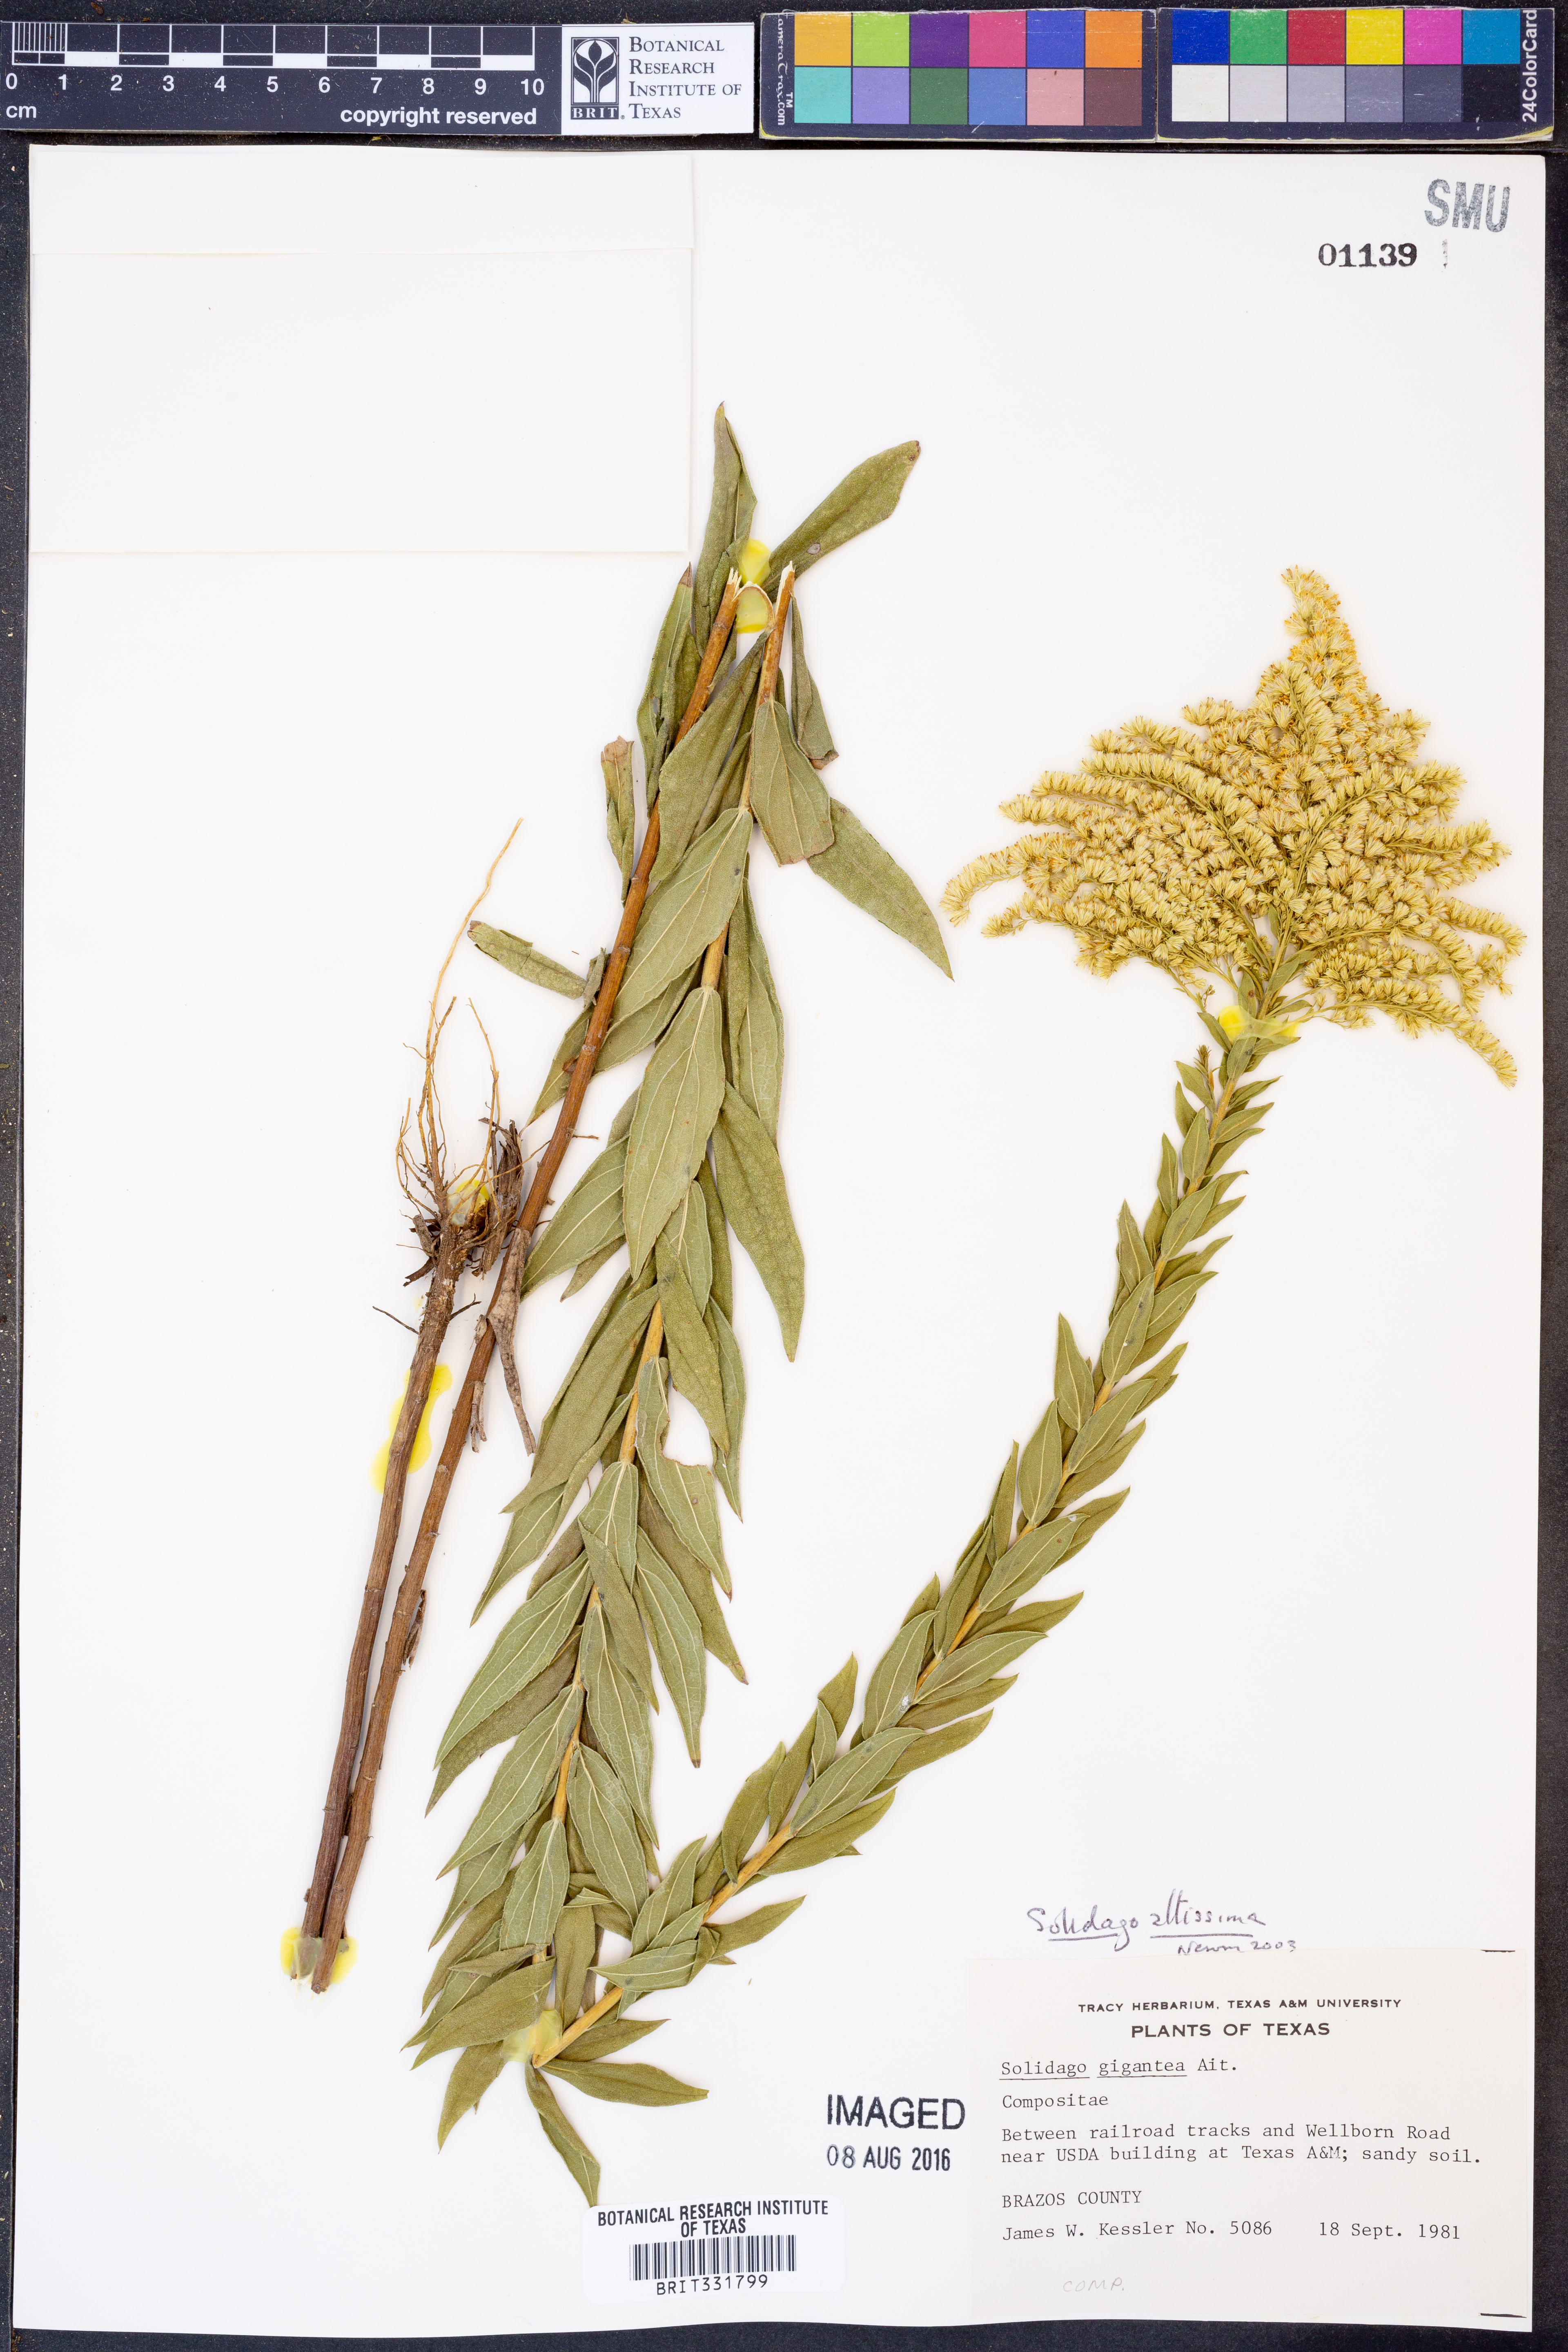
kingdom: Plantae
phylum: Tracheophyta
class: Magnoliopsida
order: Asterales
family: Asteraceae
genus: Solidago
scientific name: Solidago altissima
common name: Late goldenrod
